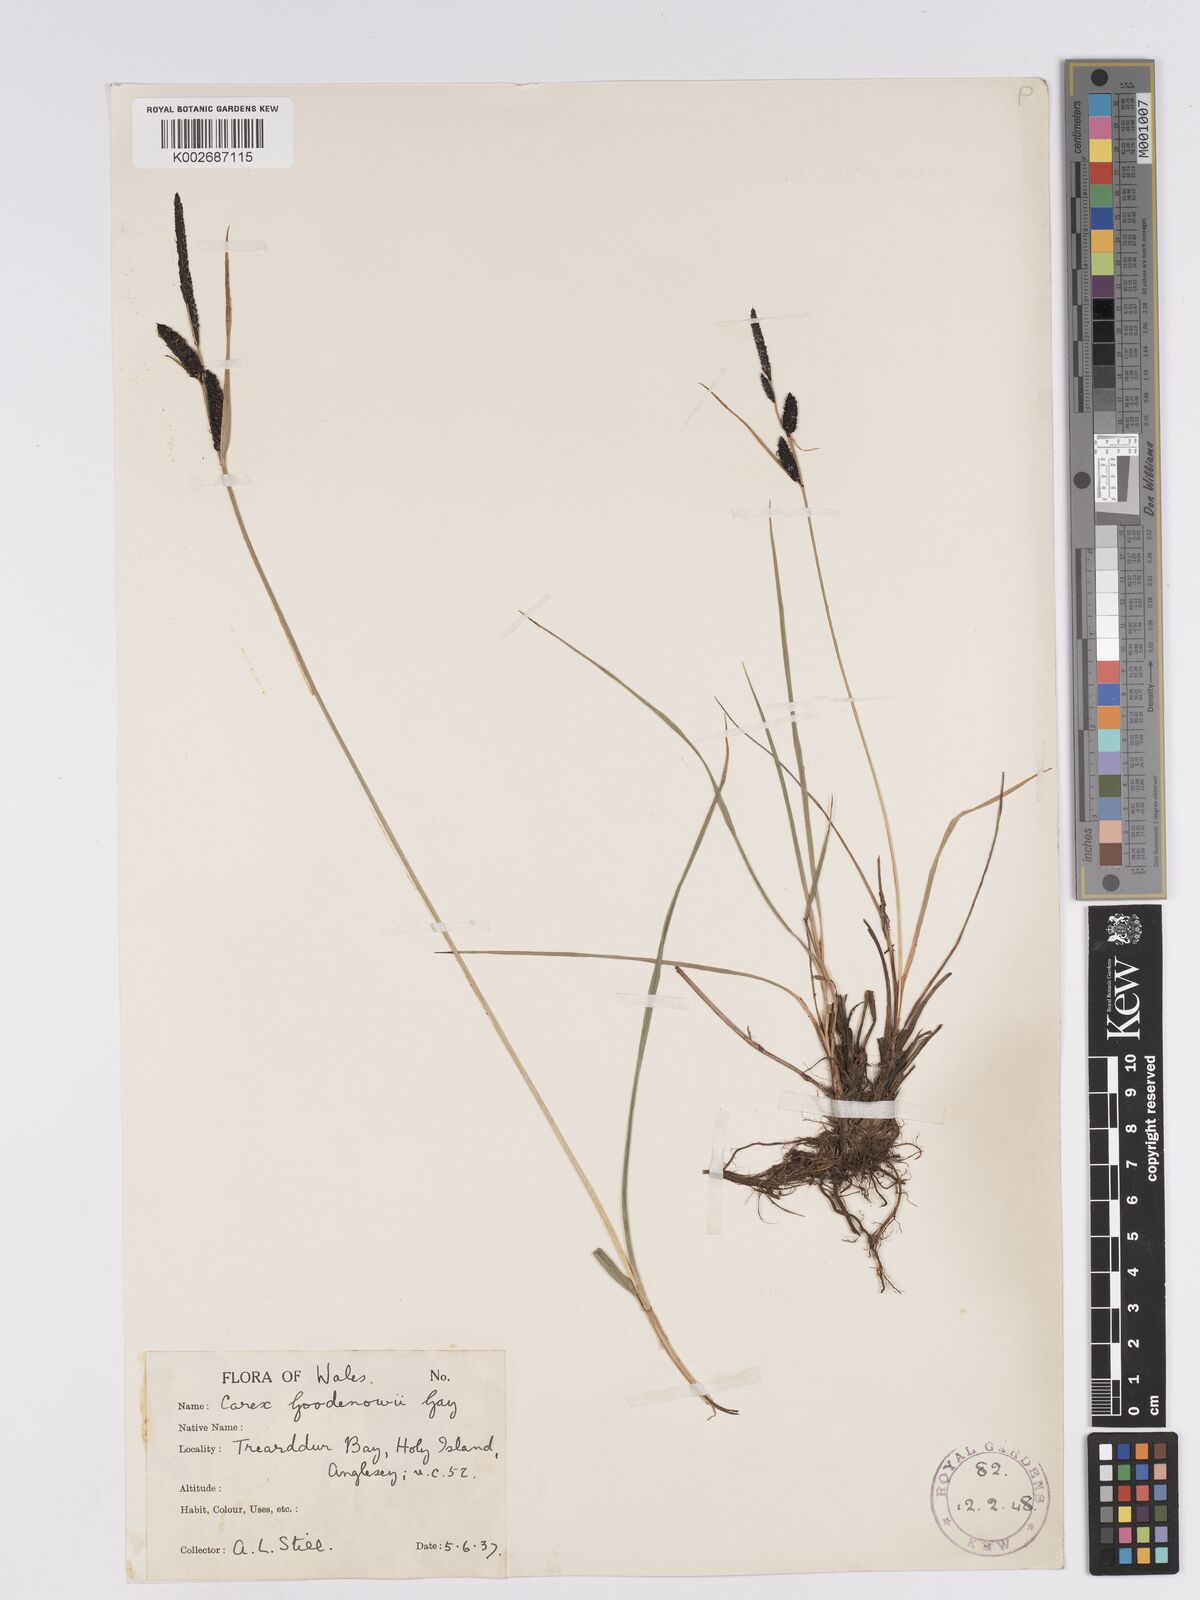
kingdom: Plantae
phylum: Tracheophyta
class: Liliopsida
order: Poales
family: Cyperaceae
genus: Carex
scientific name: Carex nigra
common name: Common sedge
